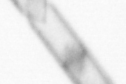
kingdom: Chromista
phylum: Ochrophyta
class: Bacillariophyceae
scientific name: Bacillariophyceae
